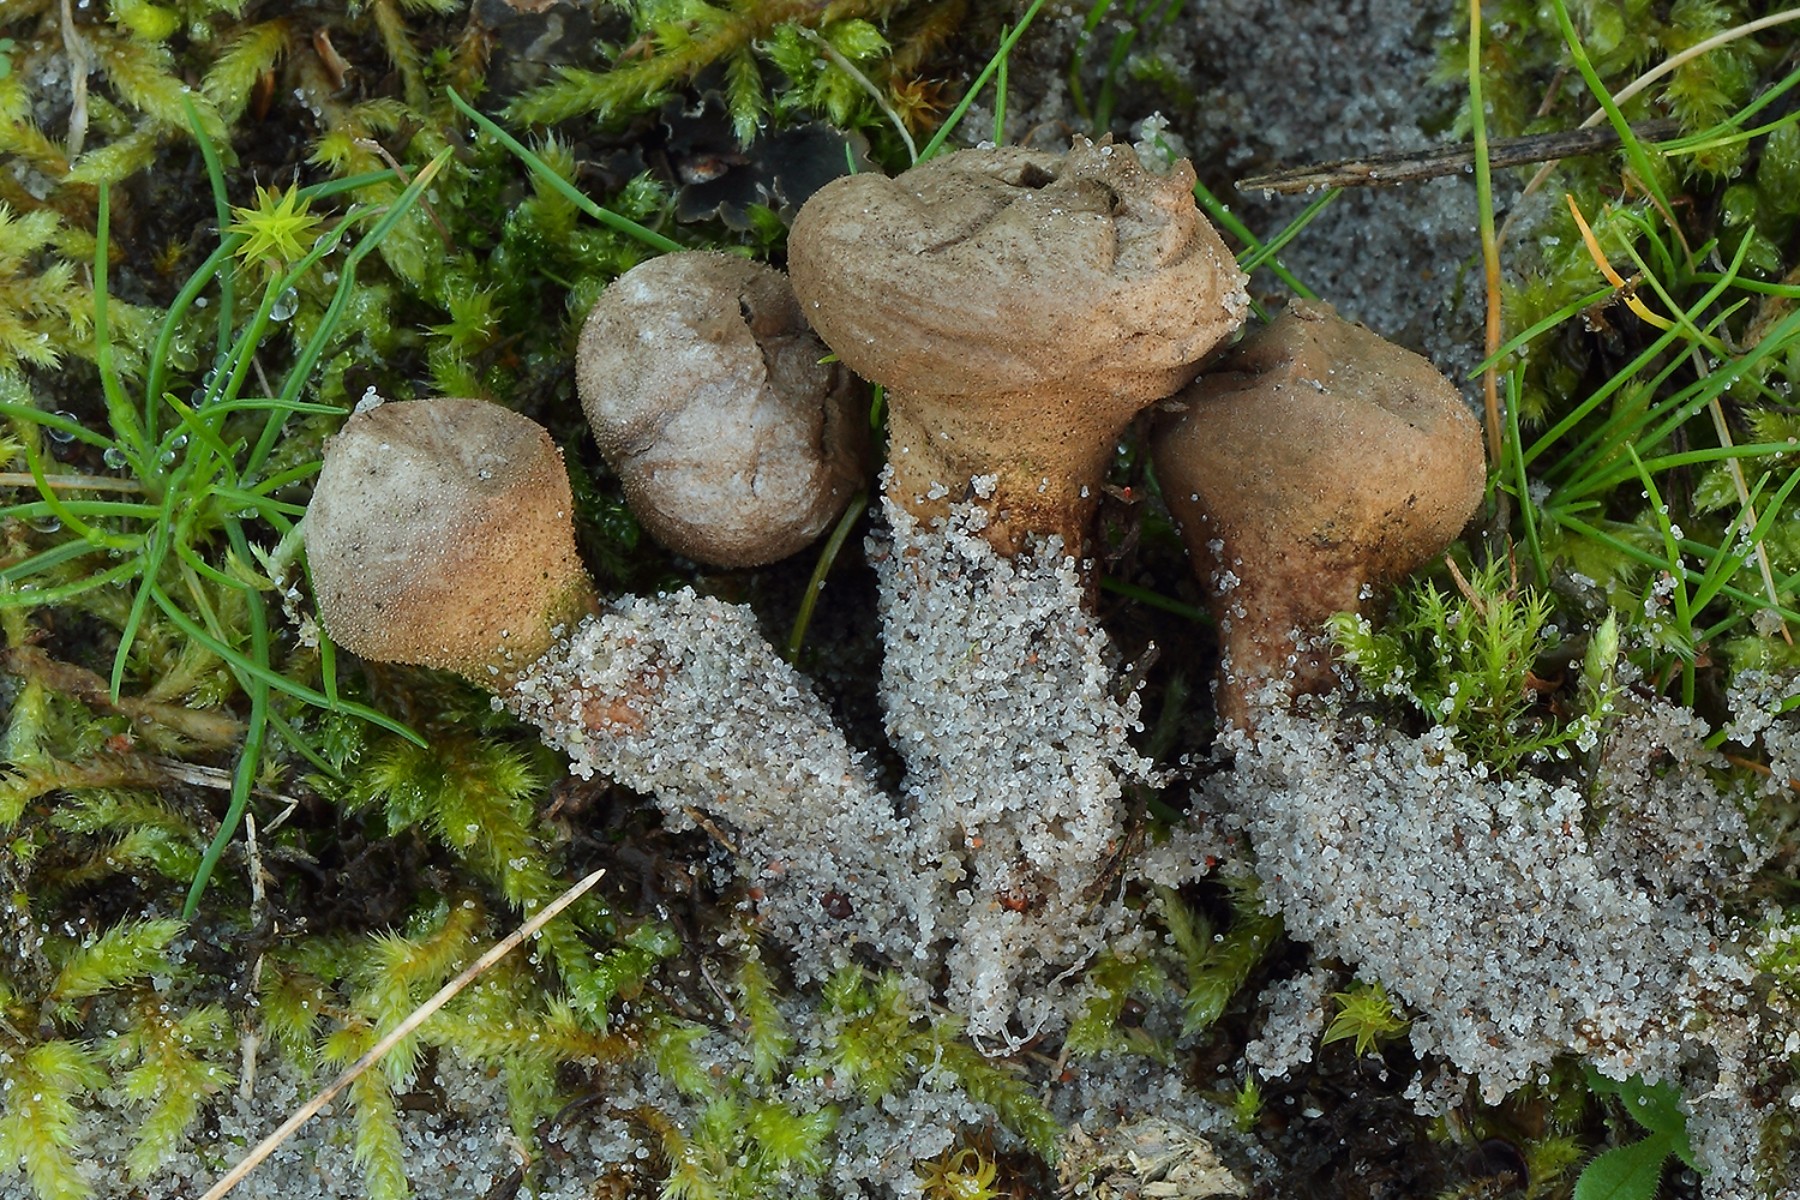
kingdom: Fungi
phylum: Basidiomycota
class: Agaricomycetes
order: Agaricales
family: Lycoperdaceae
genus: Lycoperdon
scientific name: Lycoperdon lividum
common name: mark-støvbold
